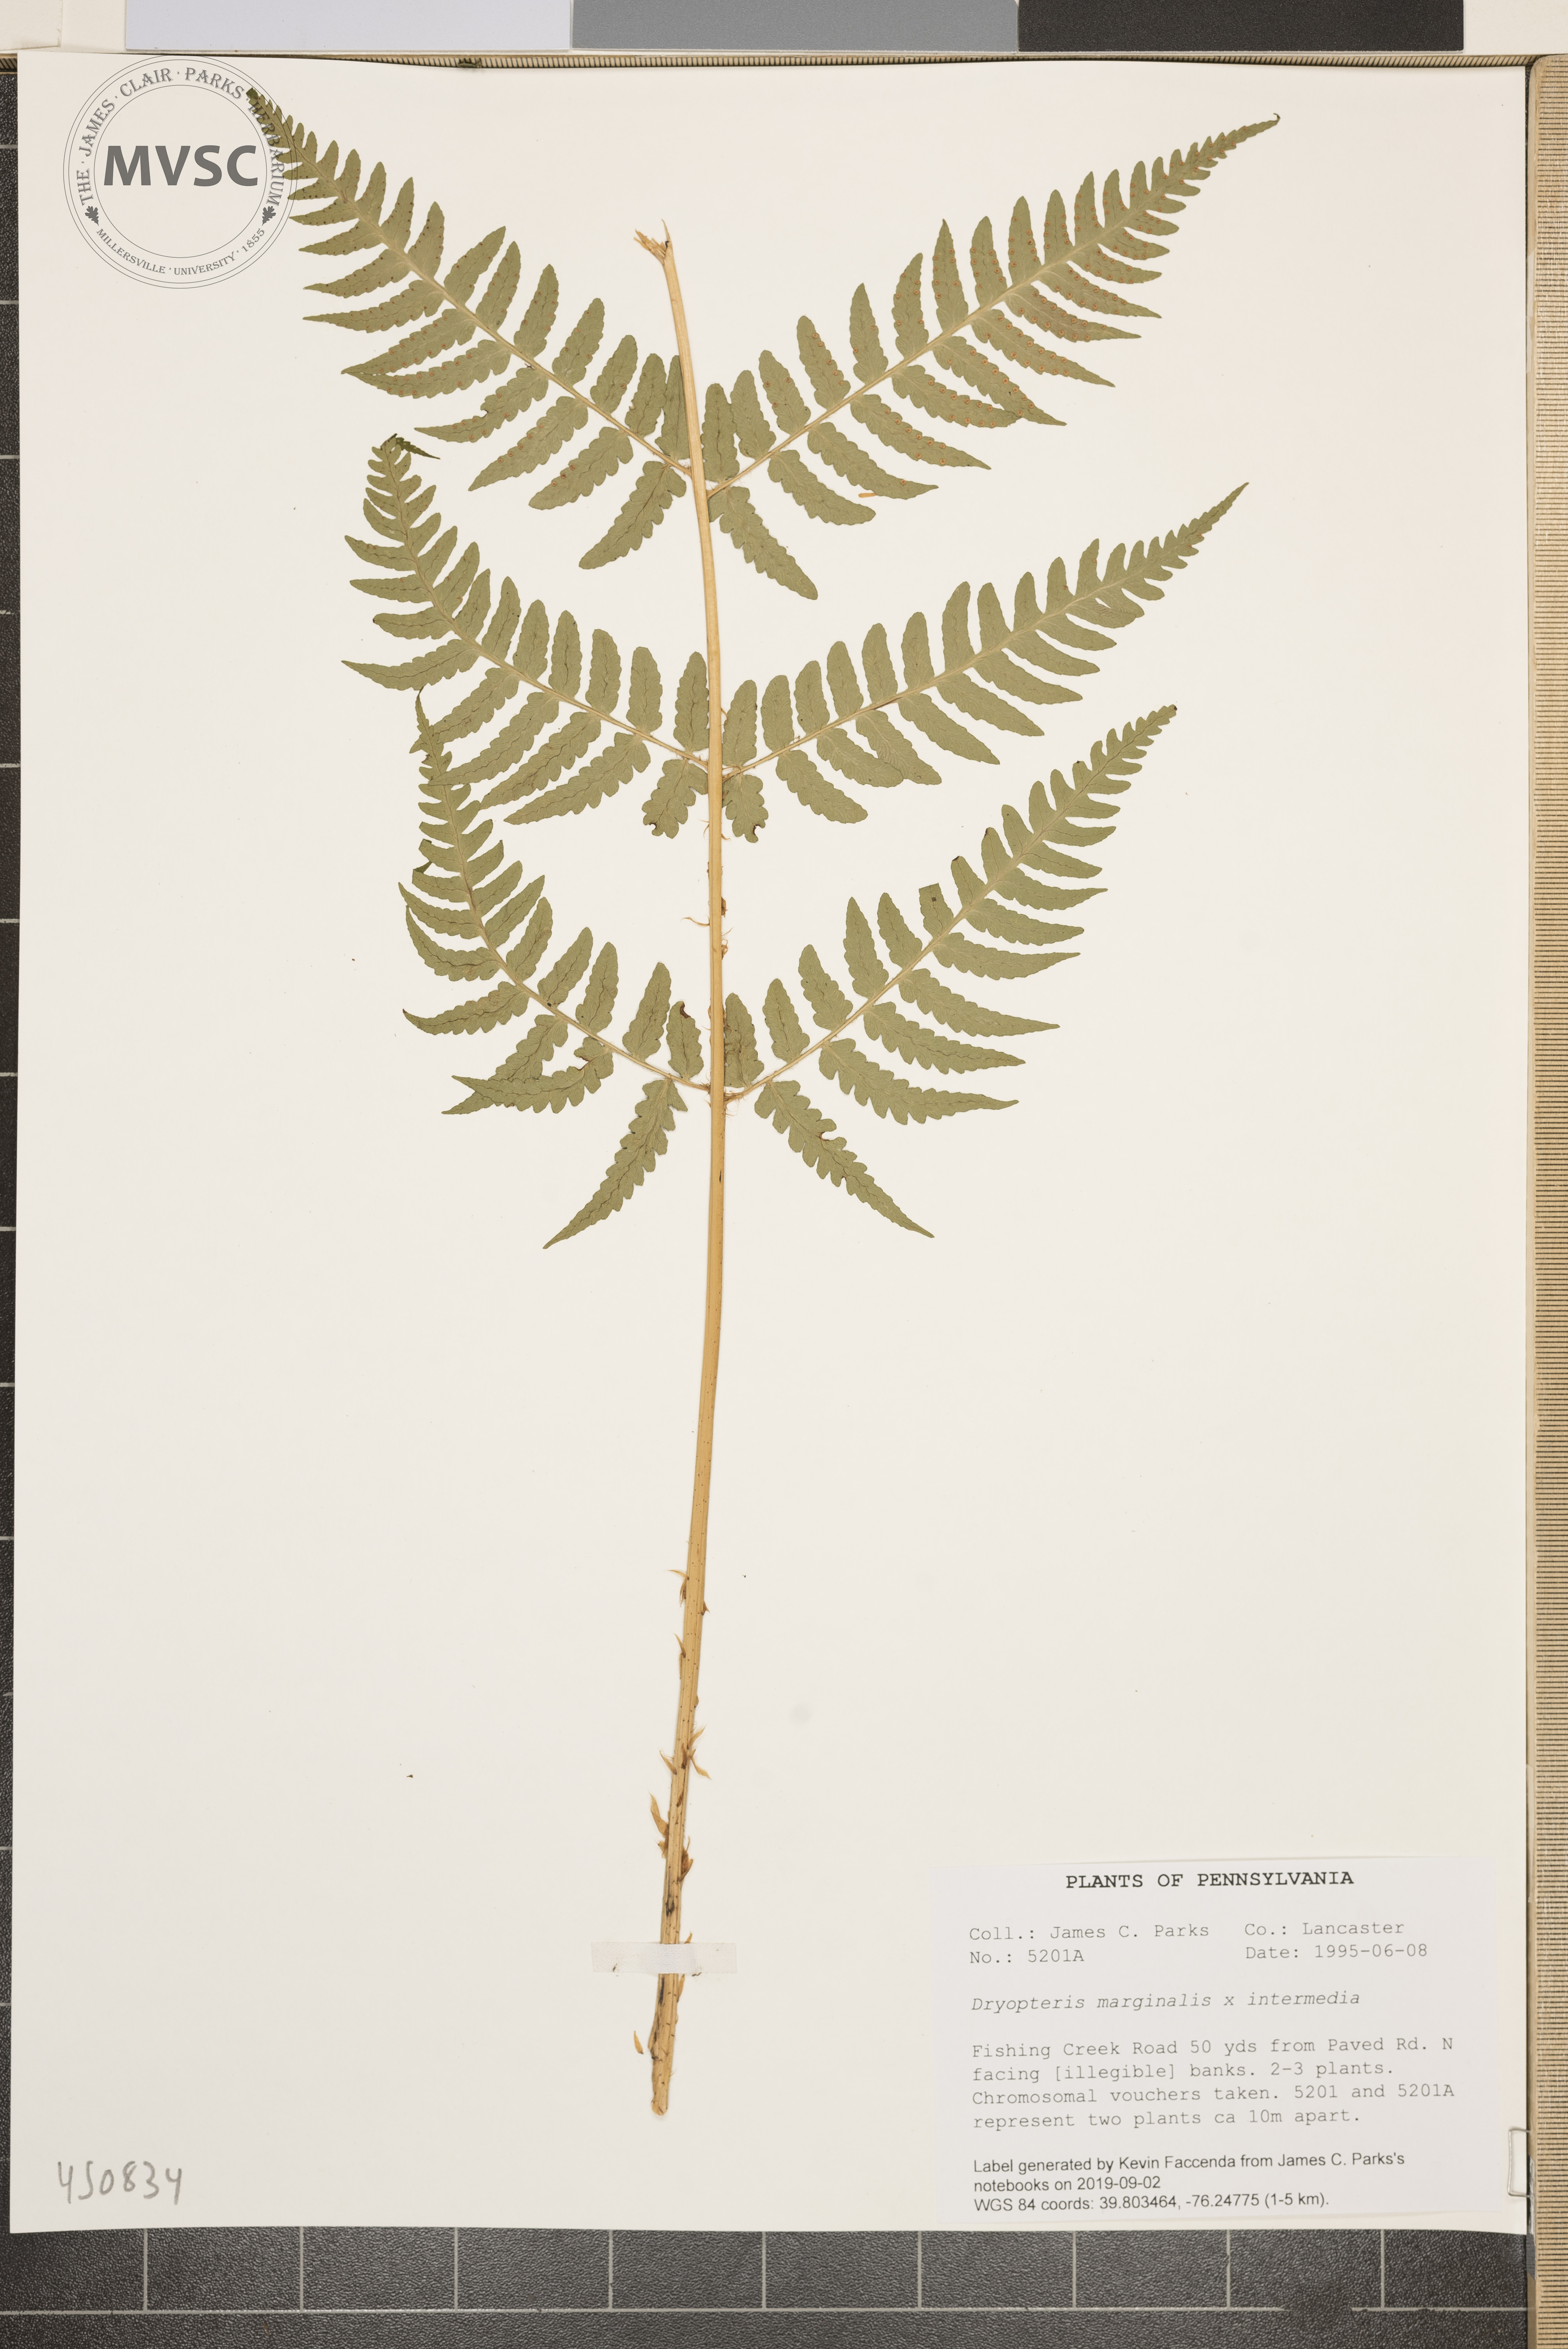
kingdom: Plantae
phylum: Tracheophyta
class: Polypodiopsida
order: Polypodiales
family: Dryopteridaceae
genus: Dryopteris
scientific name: Dryopteris
